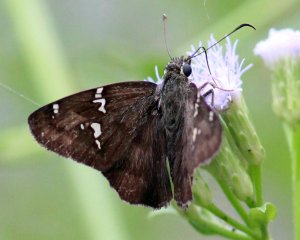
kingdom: Animalia
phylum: Arthropoda
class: Insecta
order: Lepidoptera
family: Hesperiidae
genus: Cabares
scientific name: Cabares potrillo
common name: Potrillo Skipper
